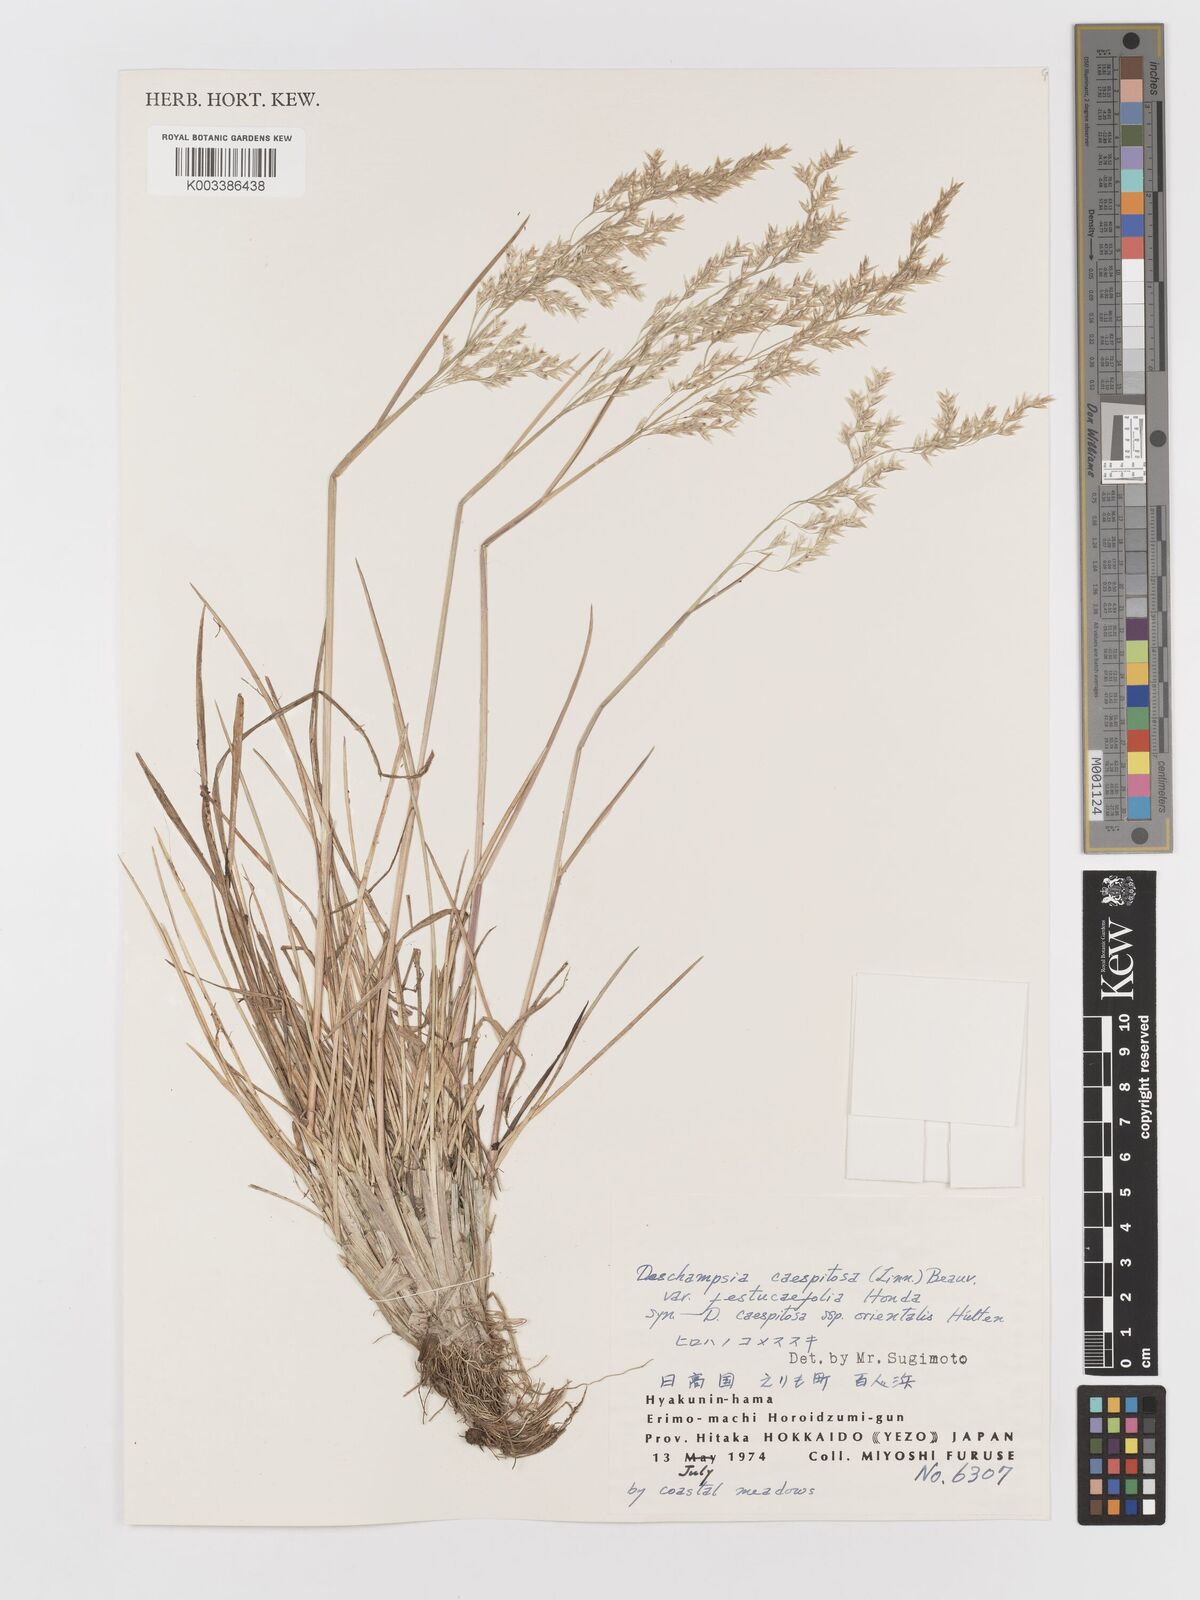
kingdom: Plantae
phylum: Tracheophyta
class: Liliopsida
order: Poales
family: Poaceae
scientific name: Poaceae
